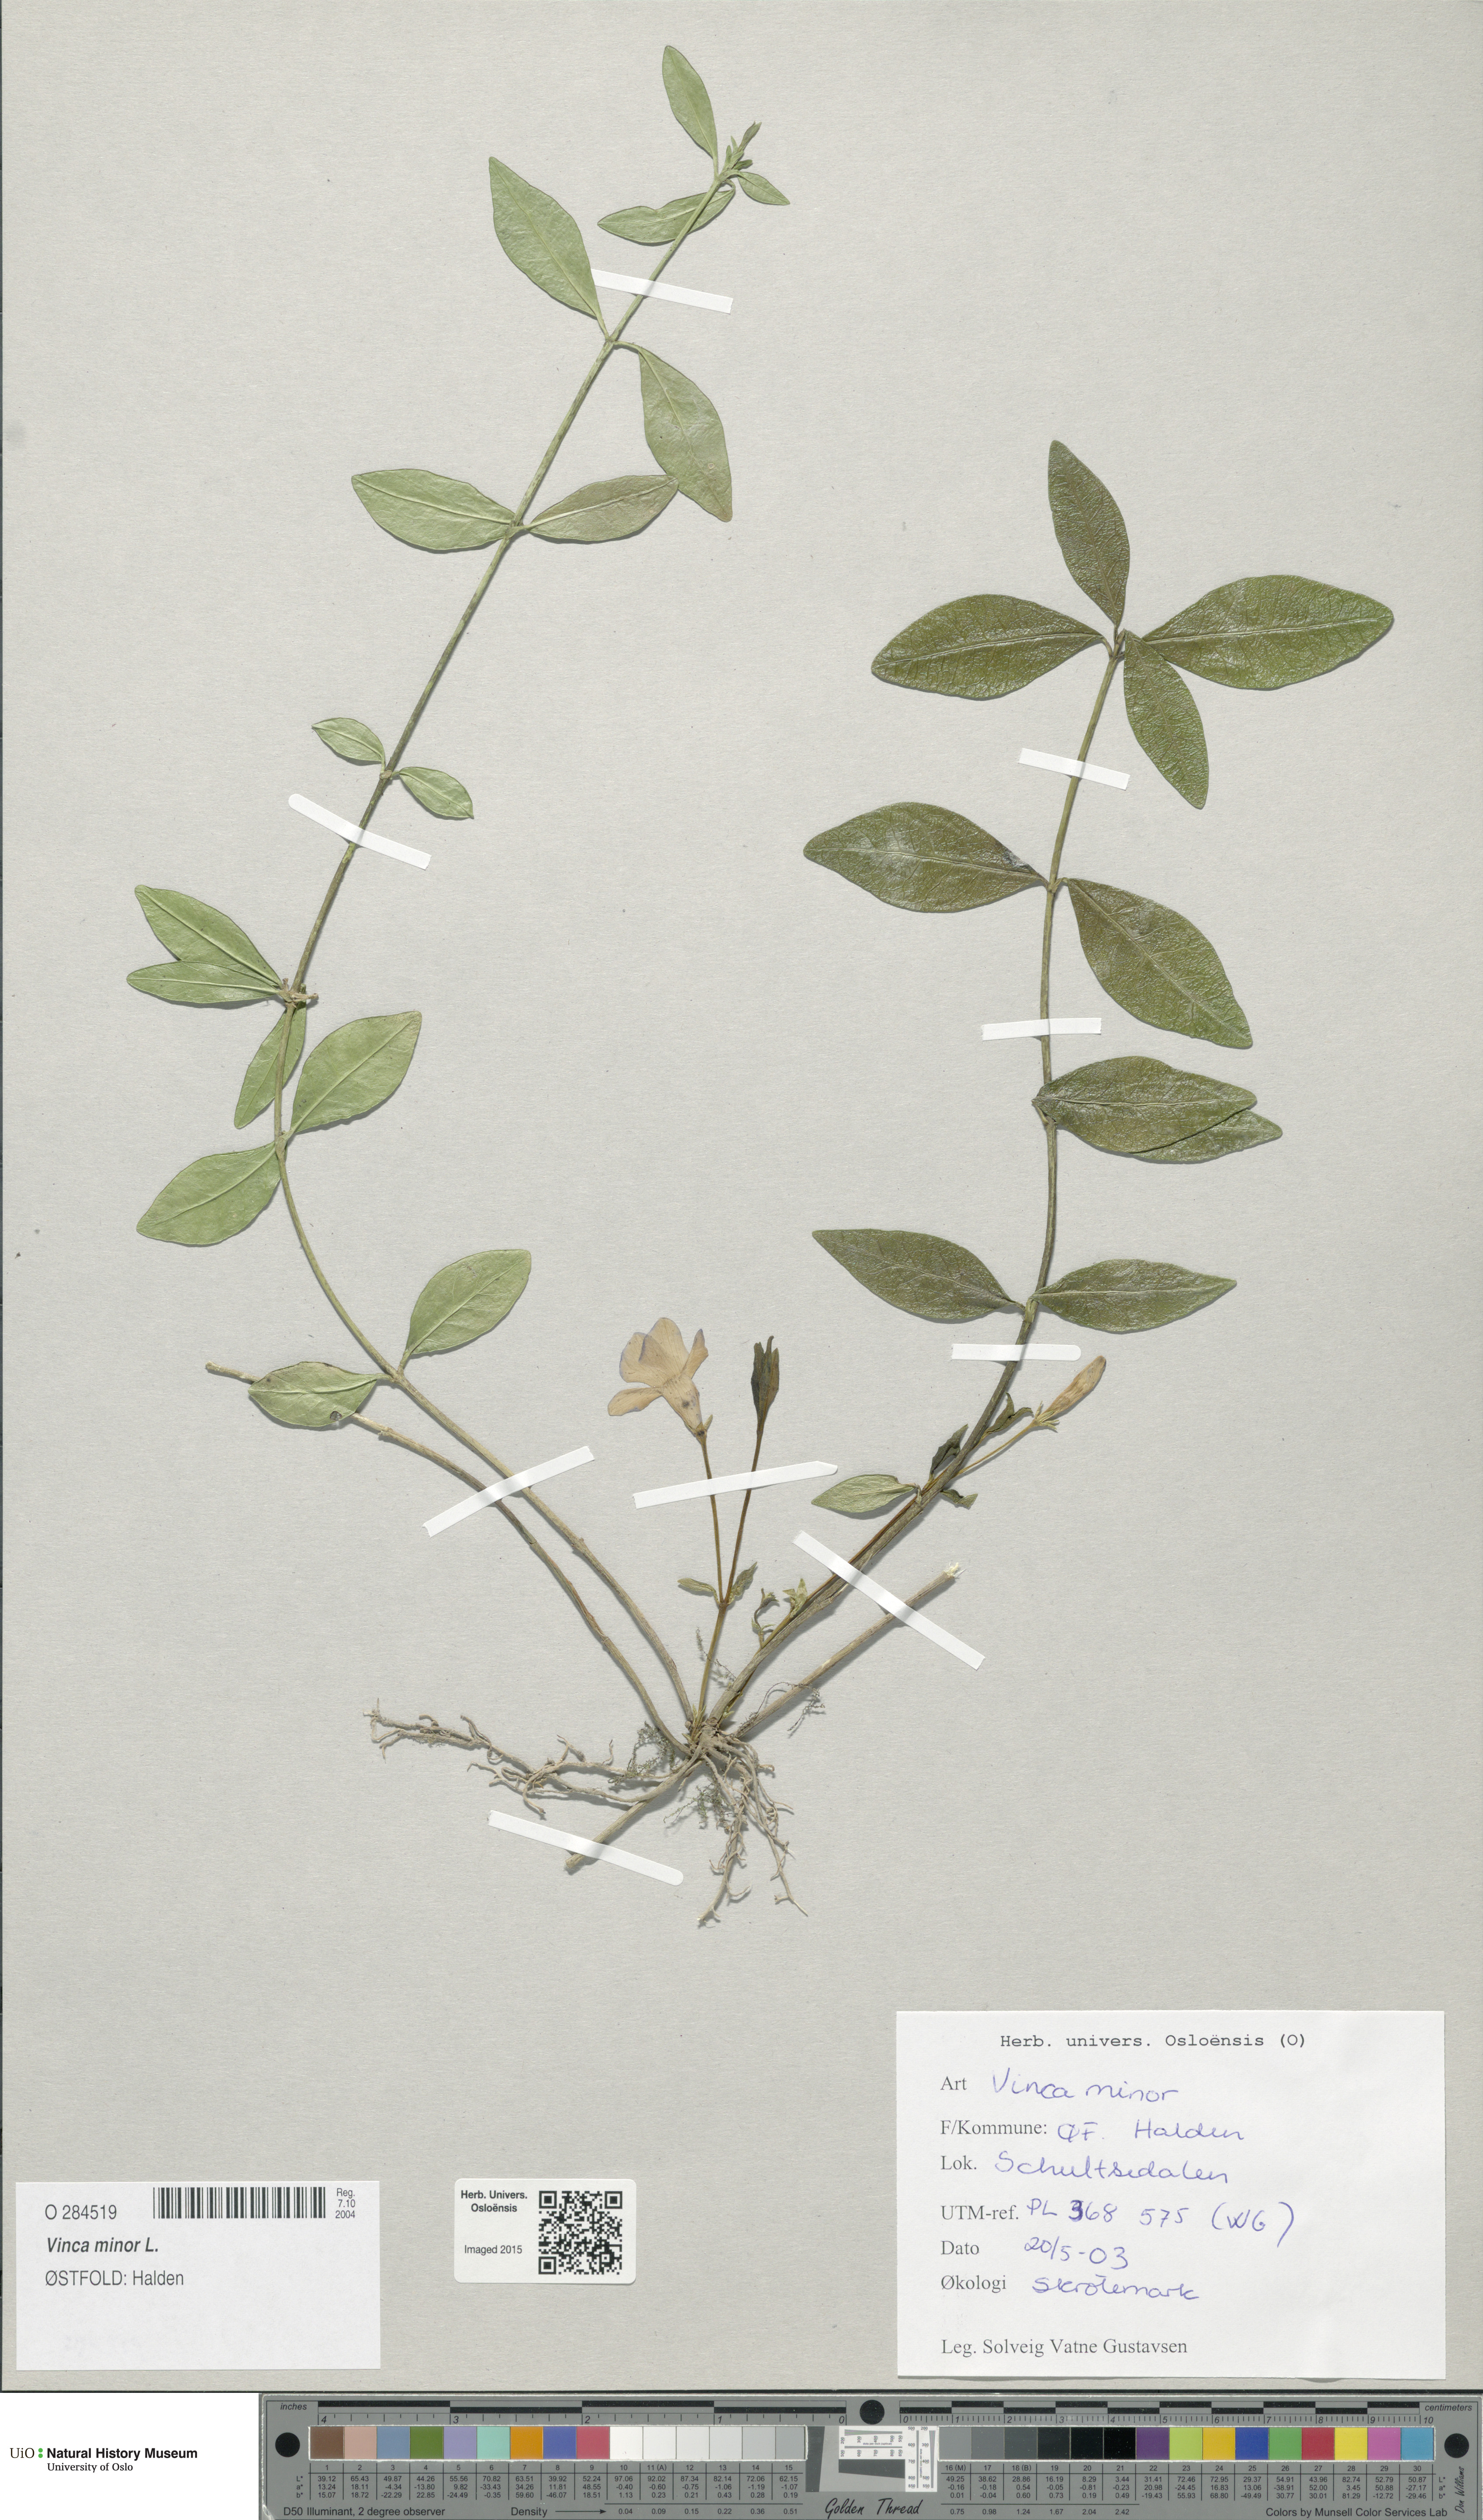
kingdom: Plantae
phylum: Tracheophyta
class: Magnoliopsida
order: Gentianales
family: Apocynaceae
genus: Vinca
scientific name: Vinca minor
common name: Lesser periwinkle
